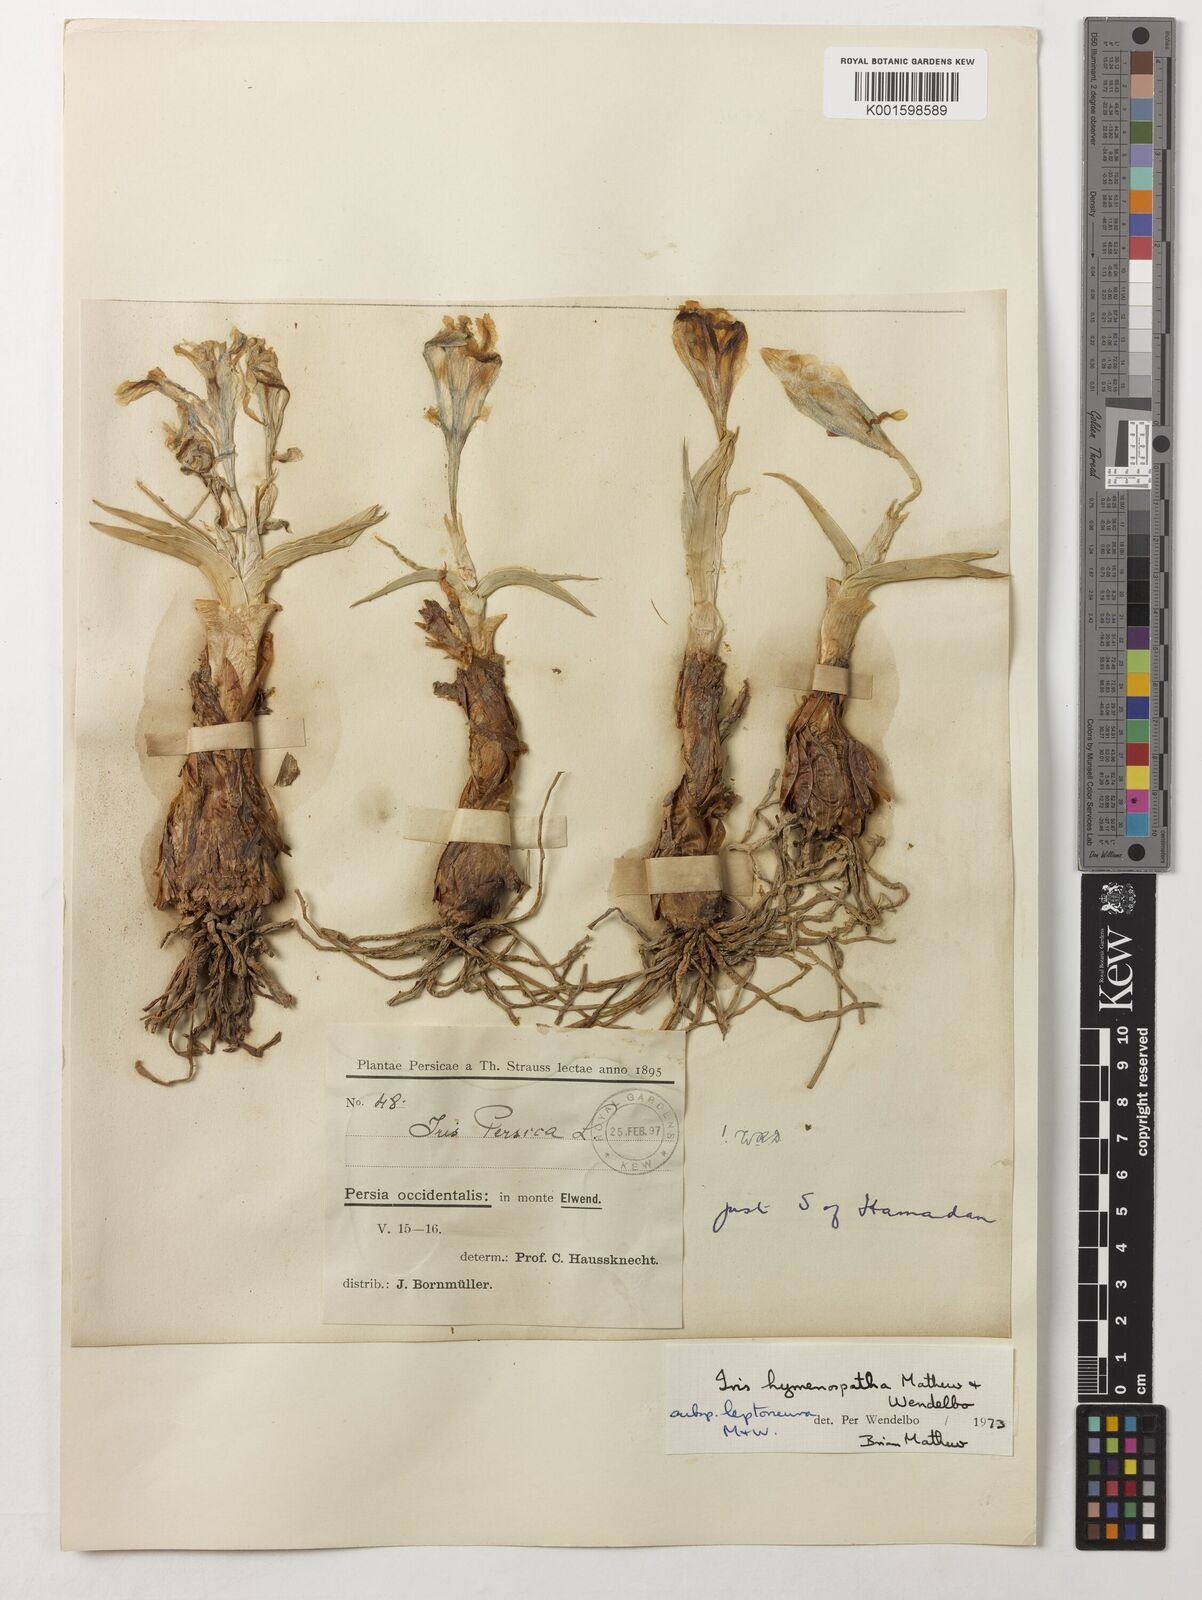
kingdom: Plantae
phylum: Tracheophyta
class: Liliopsida
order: Asparagales
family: Iridaceae
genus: Iris
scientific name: Iris hymenospatha
